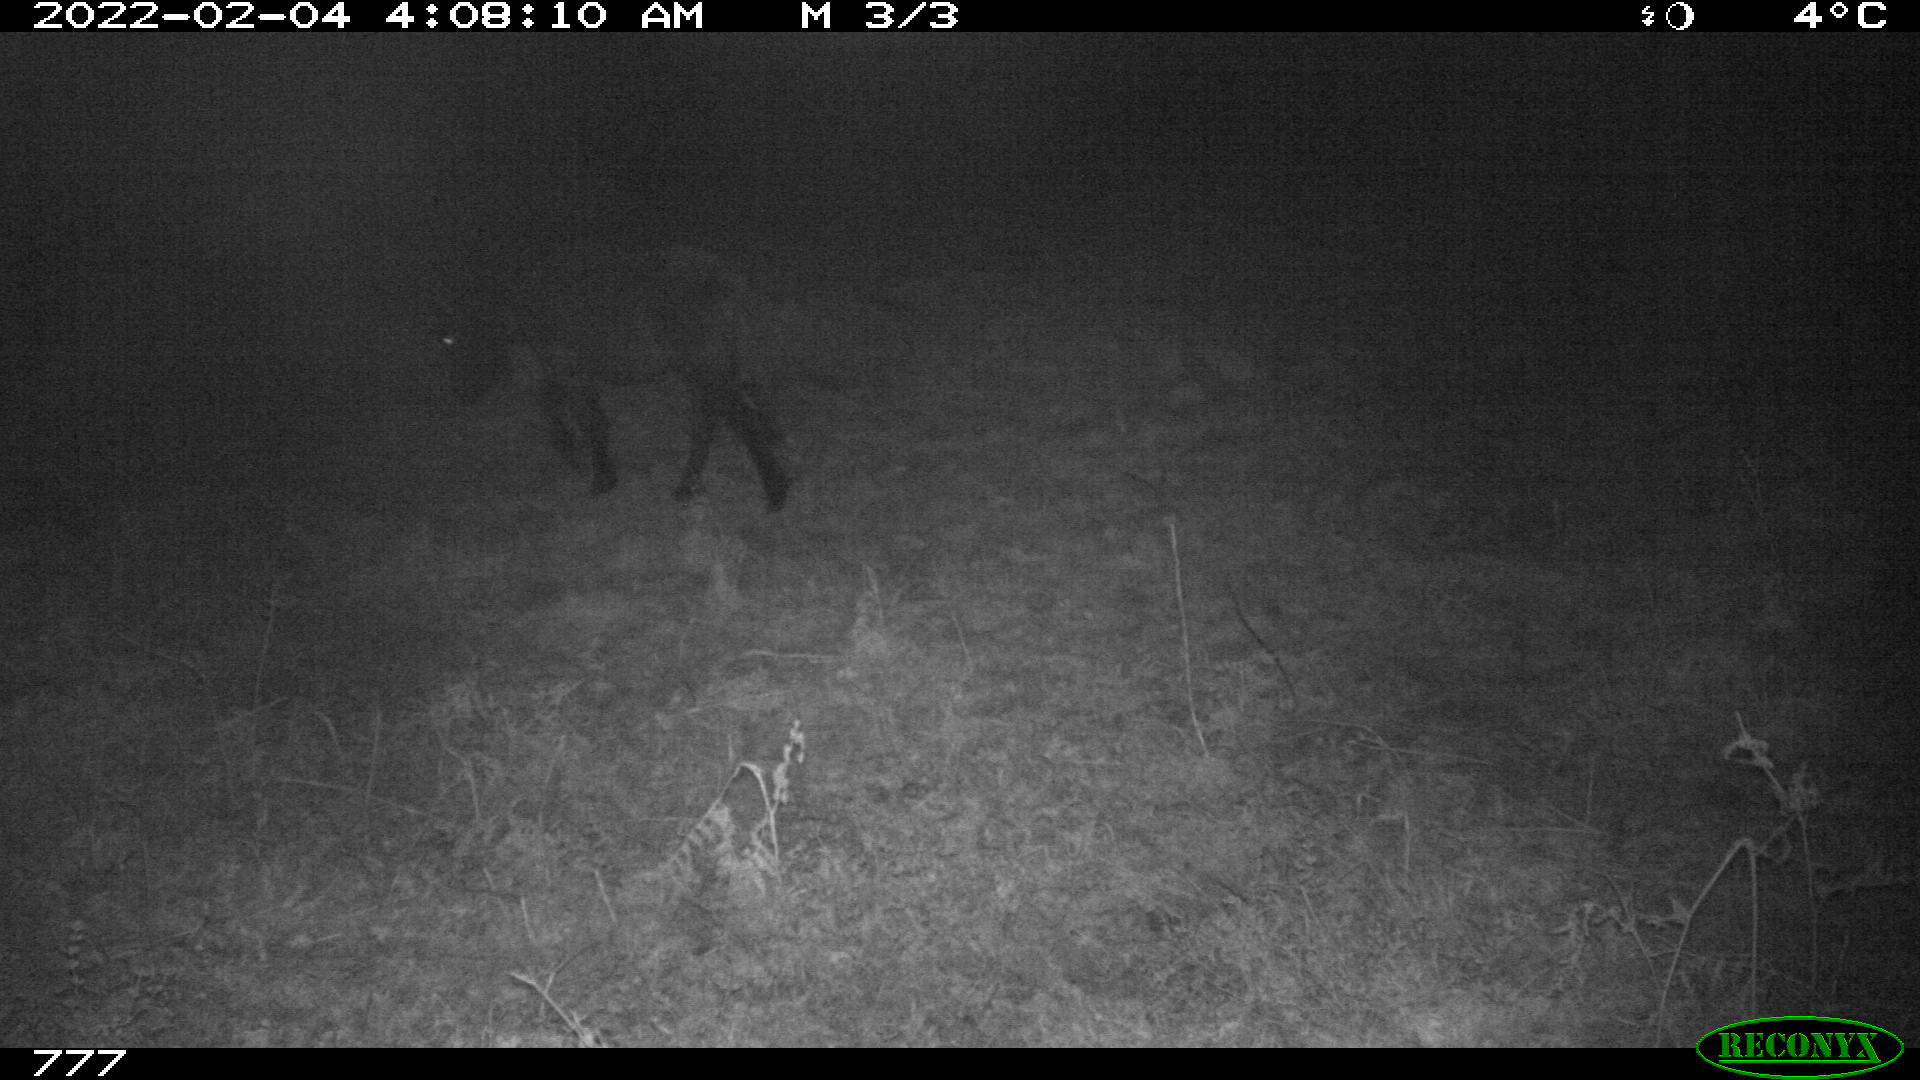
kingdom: Animalia
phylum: Chordata
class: Mammalia
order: Perissodactyla
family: Equidae
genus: Equus
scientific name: Equus caballus
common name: Horse
